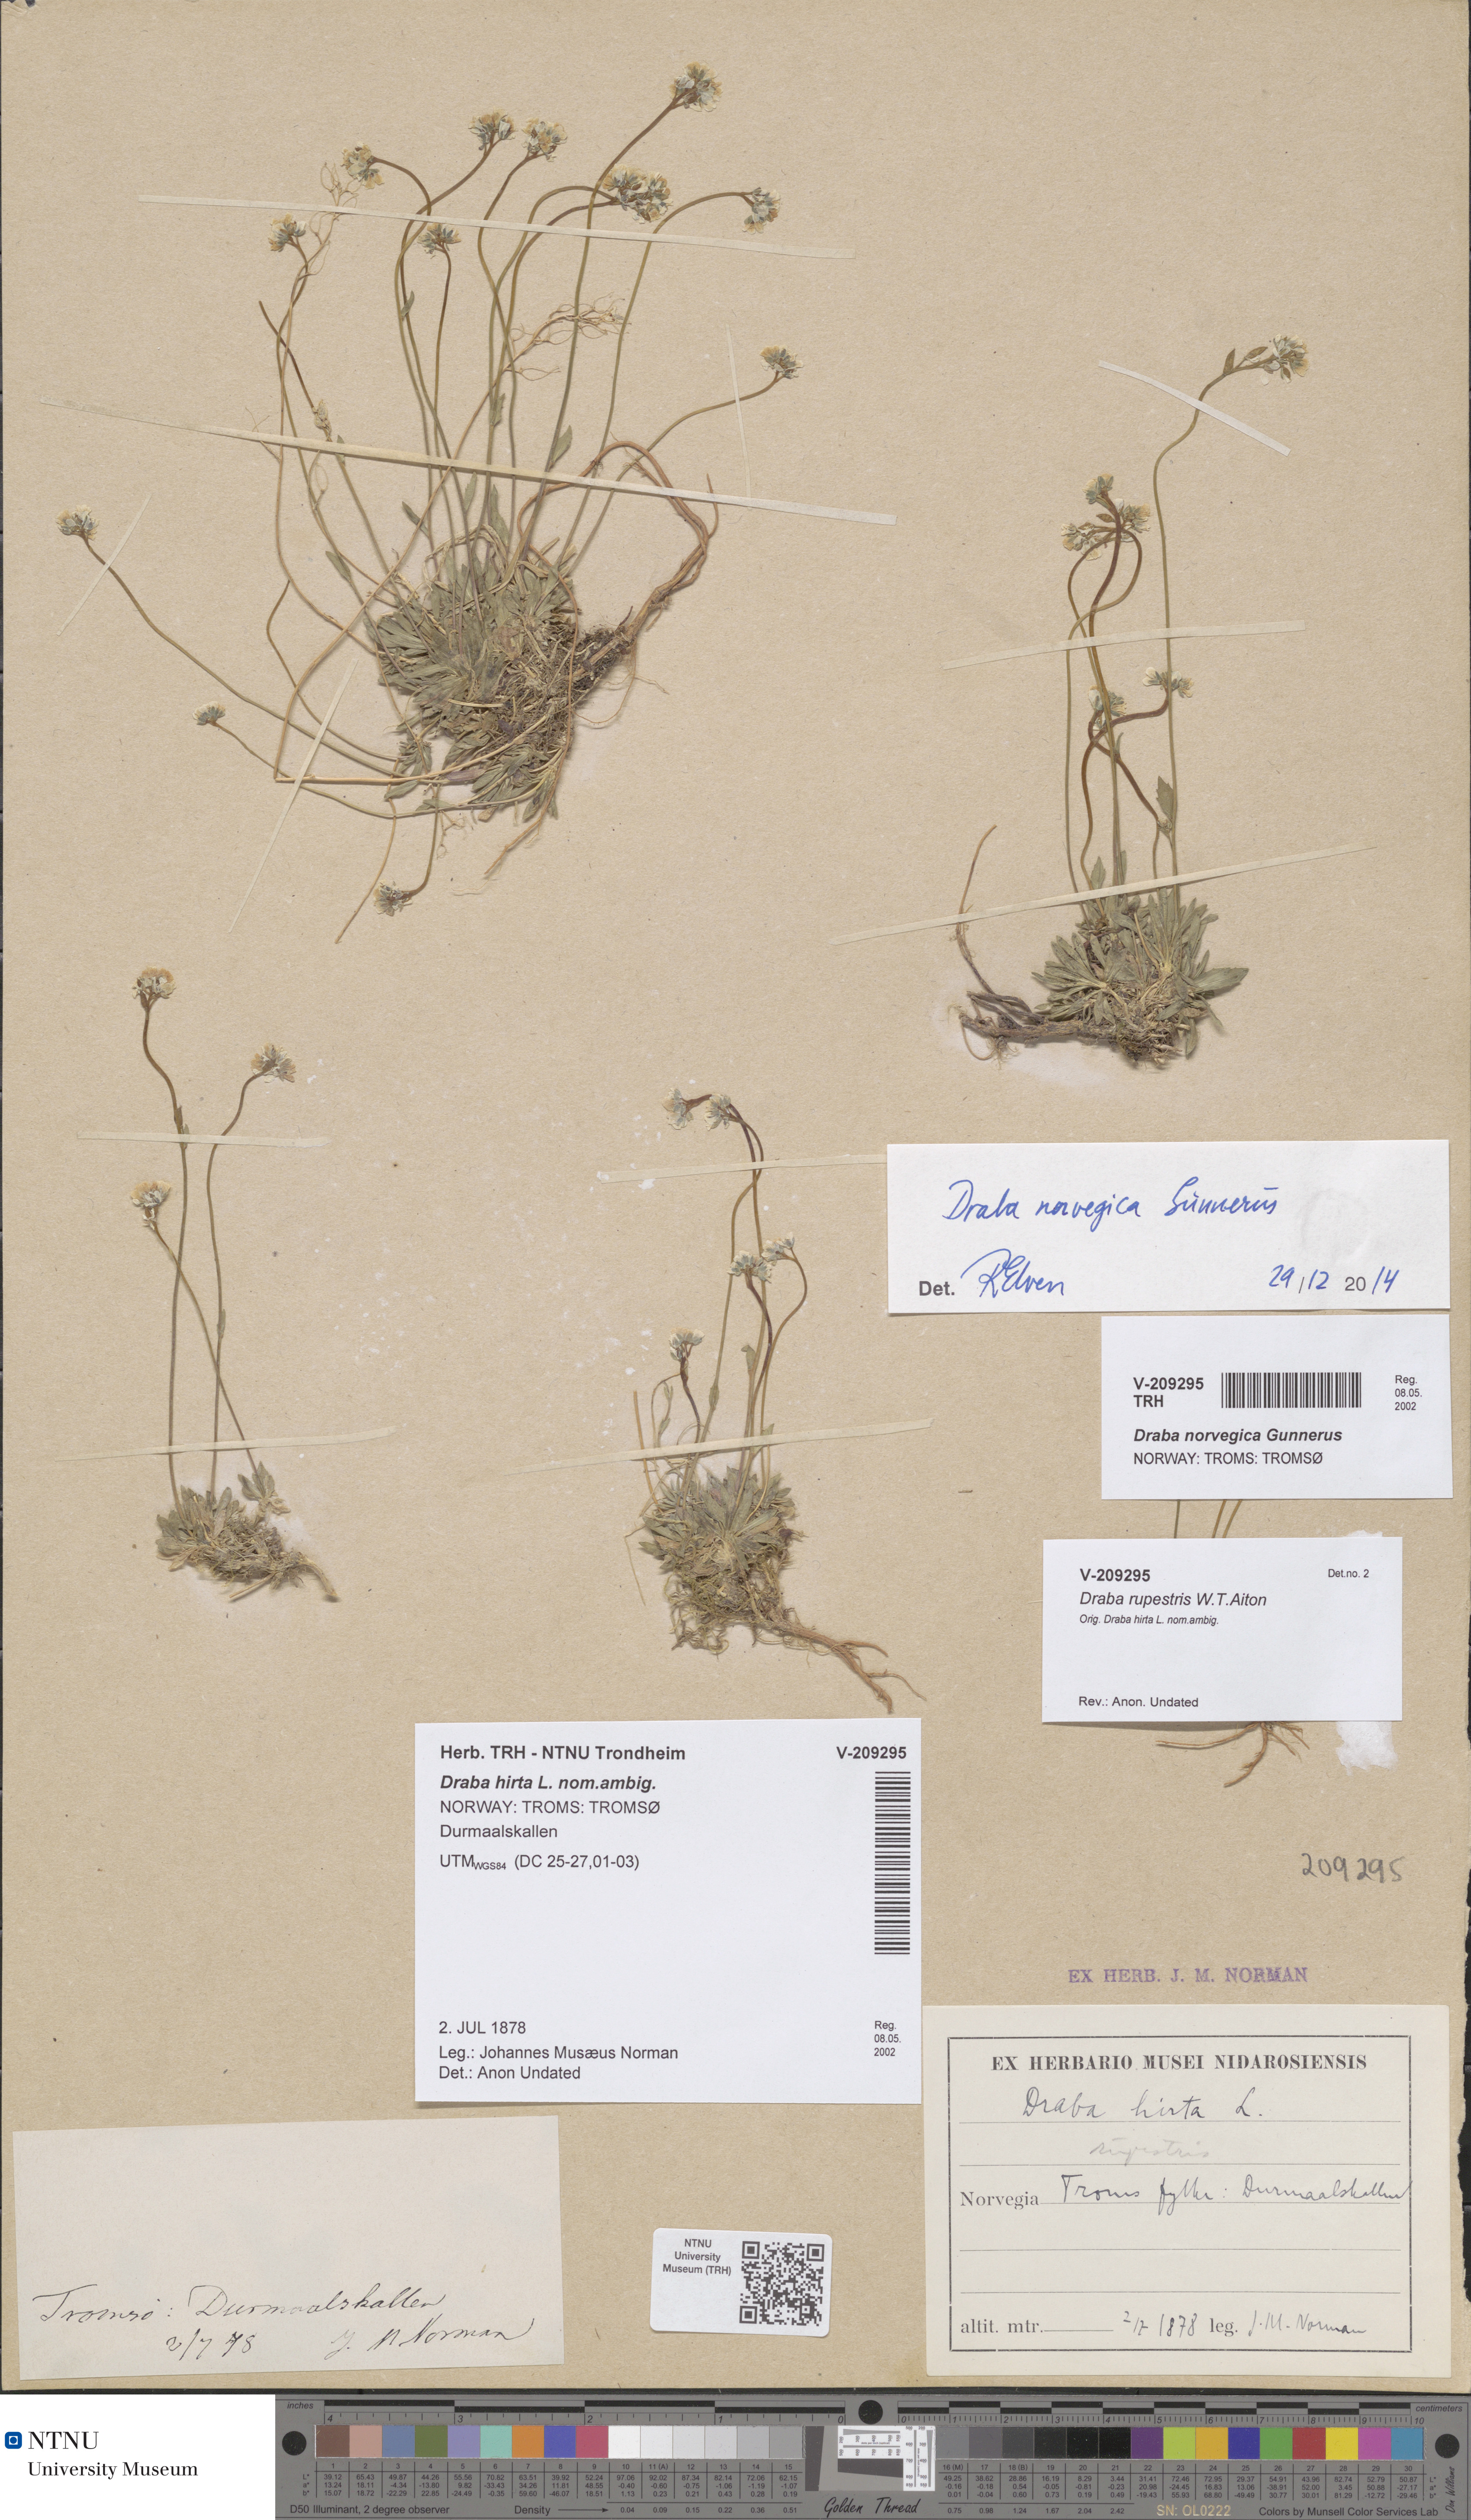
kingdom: Plantae
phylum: Tracheophyta
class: Magnoliopsida
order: Brassicales
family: Brassicaceae
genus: Draba
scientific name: Draba norvegica
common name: Rock whitlowgrass
